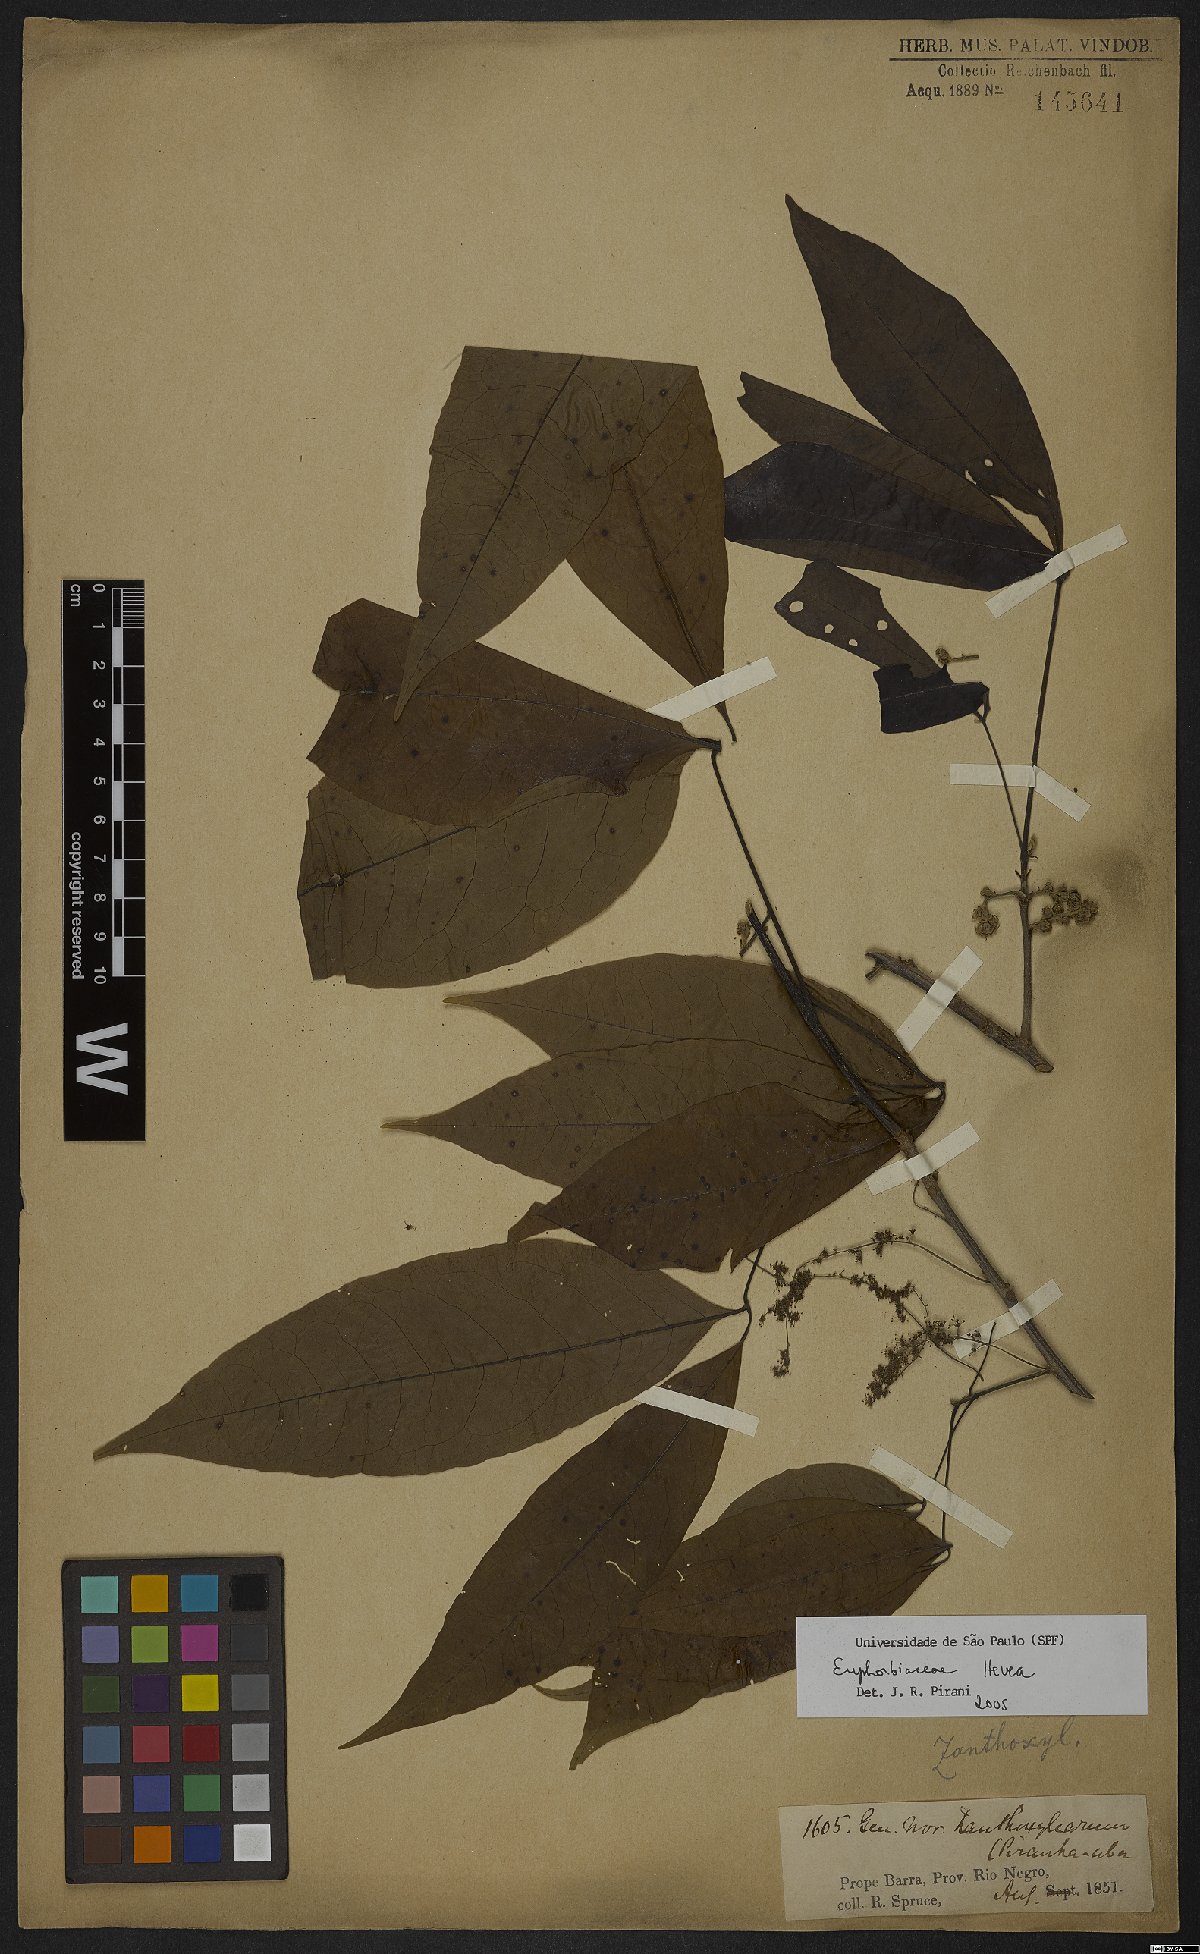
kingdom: Plantae
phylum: Tracheophyta
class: Magnoliopsida
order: Malpighiales
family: Euphorbiaceae
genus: Hevea
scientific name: Hevea
